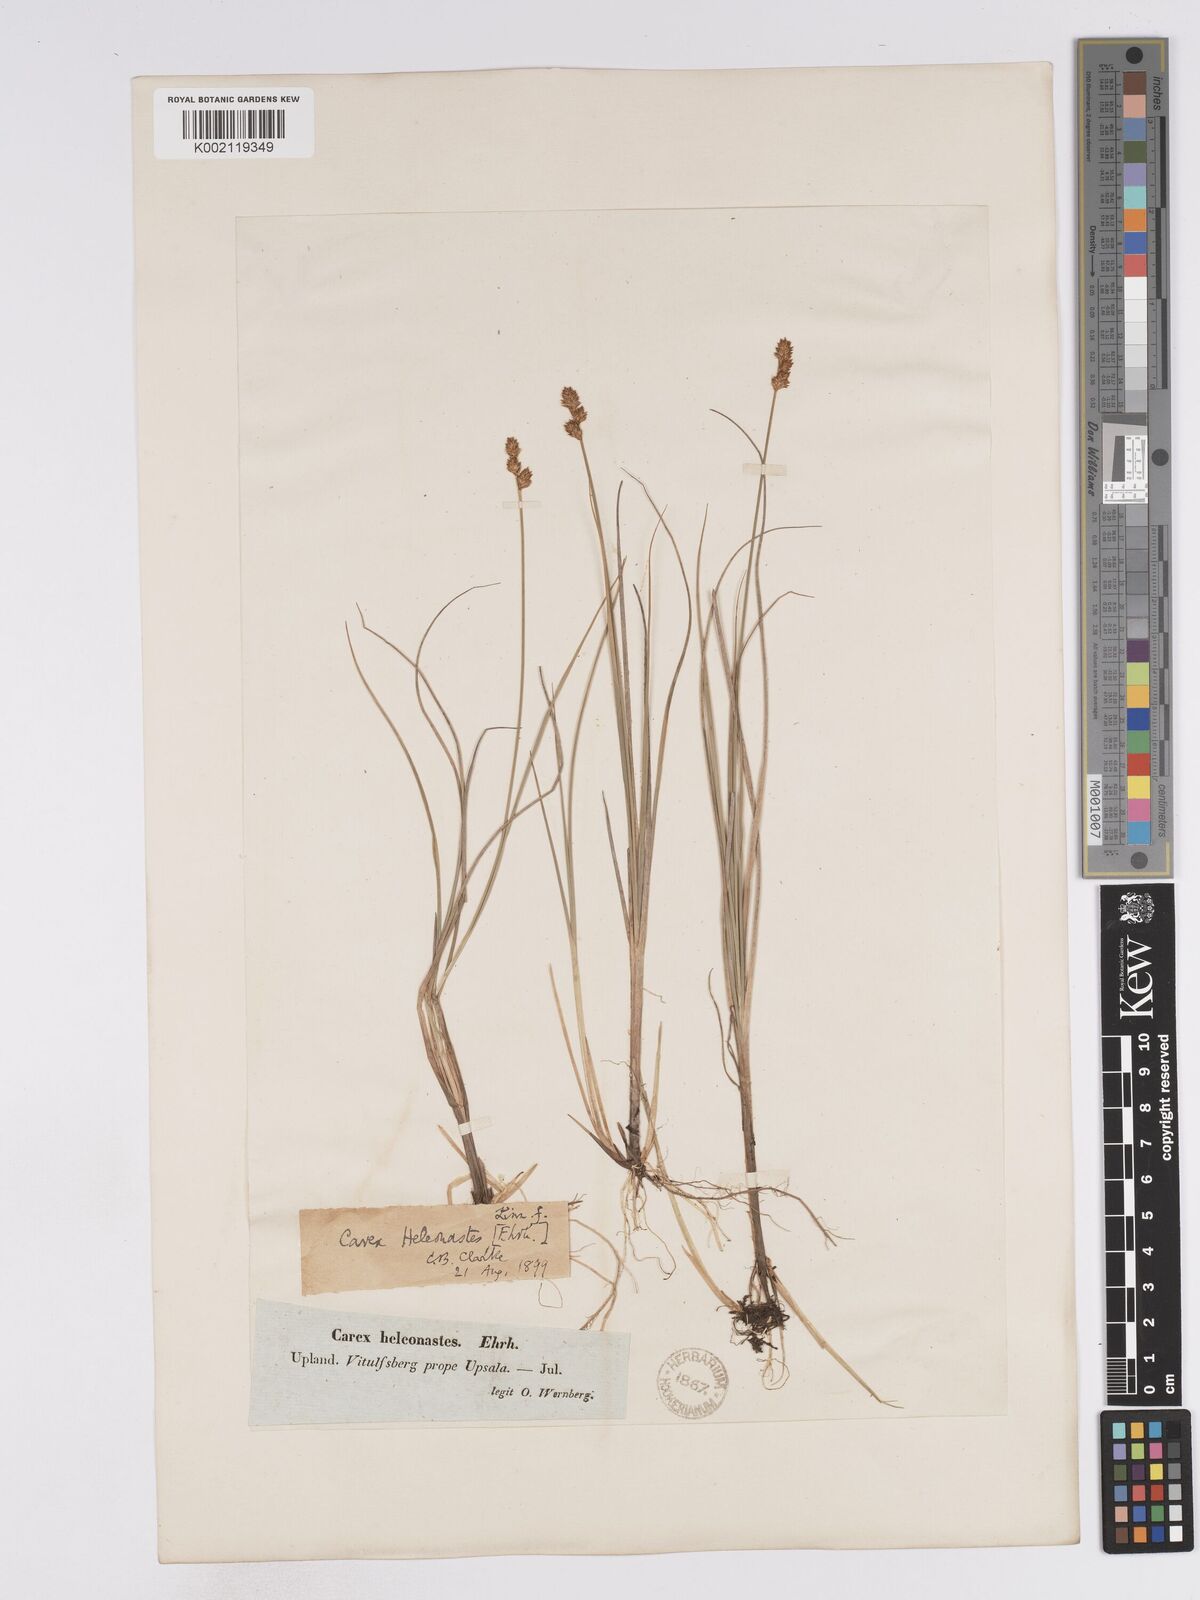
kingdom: Plantae
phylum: Tracheophyta
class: Liliopsida
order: Poales
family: Cyperaceae
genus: Carex
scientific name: Carex heleonastes
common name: Hudson bay sedge
